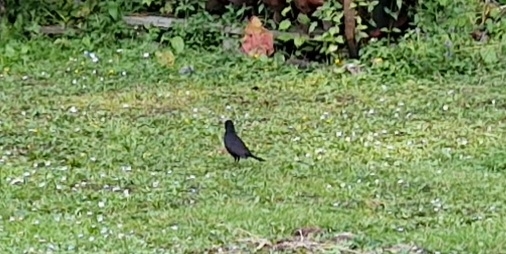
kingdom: Animalia
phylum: Chordata
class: Aves
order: Passeriformes
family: Turdidae
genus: Turdus
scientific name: Turdus merula
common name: Solsort
